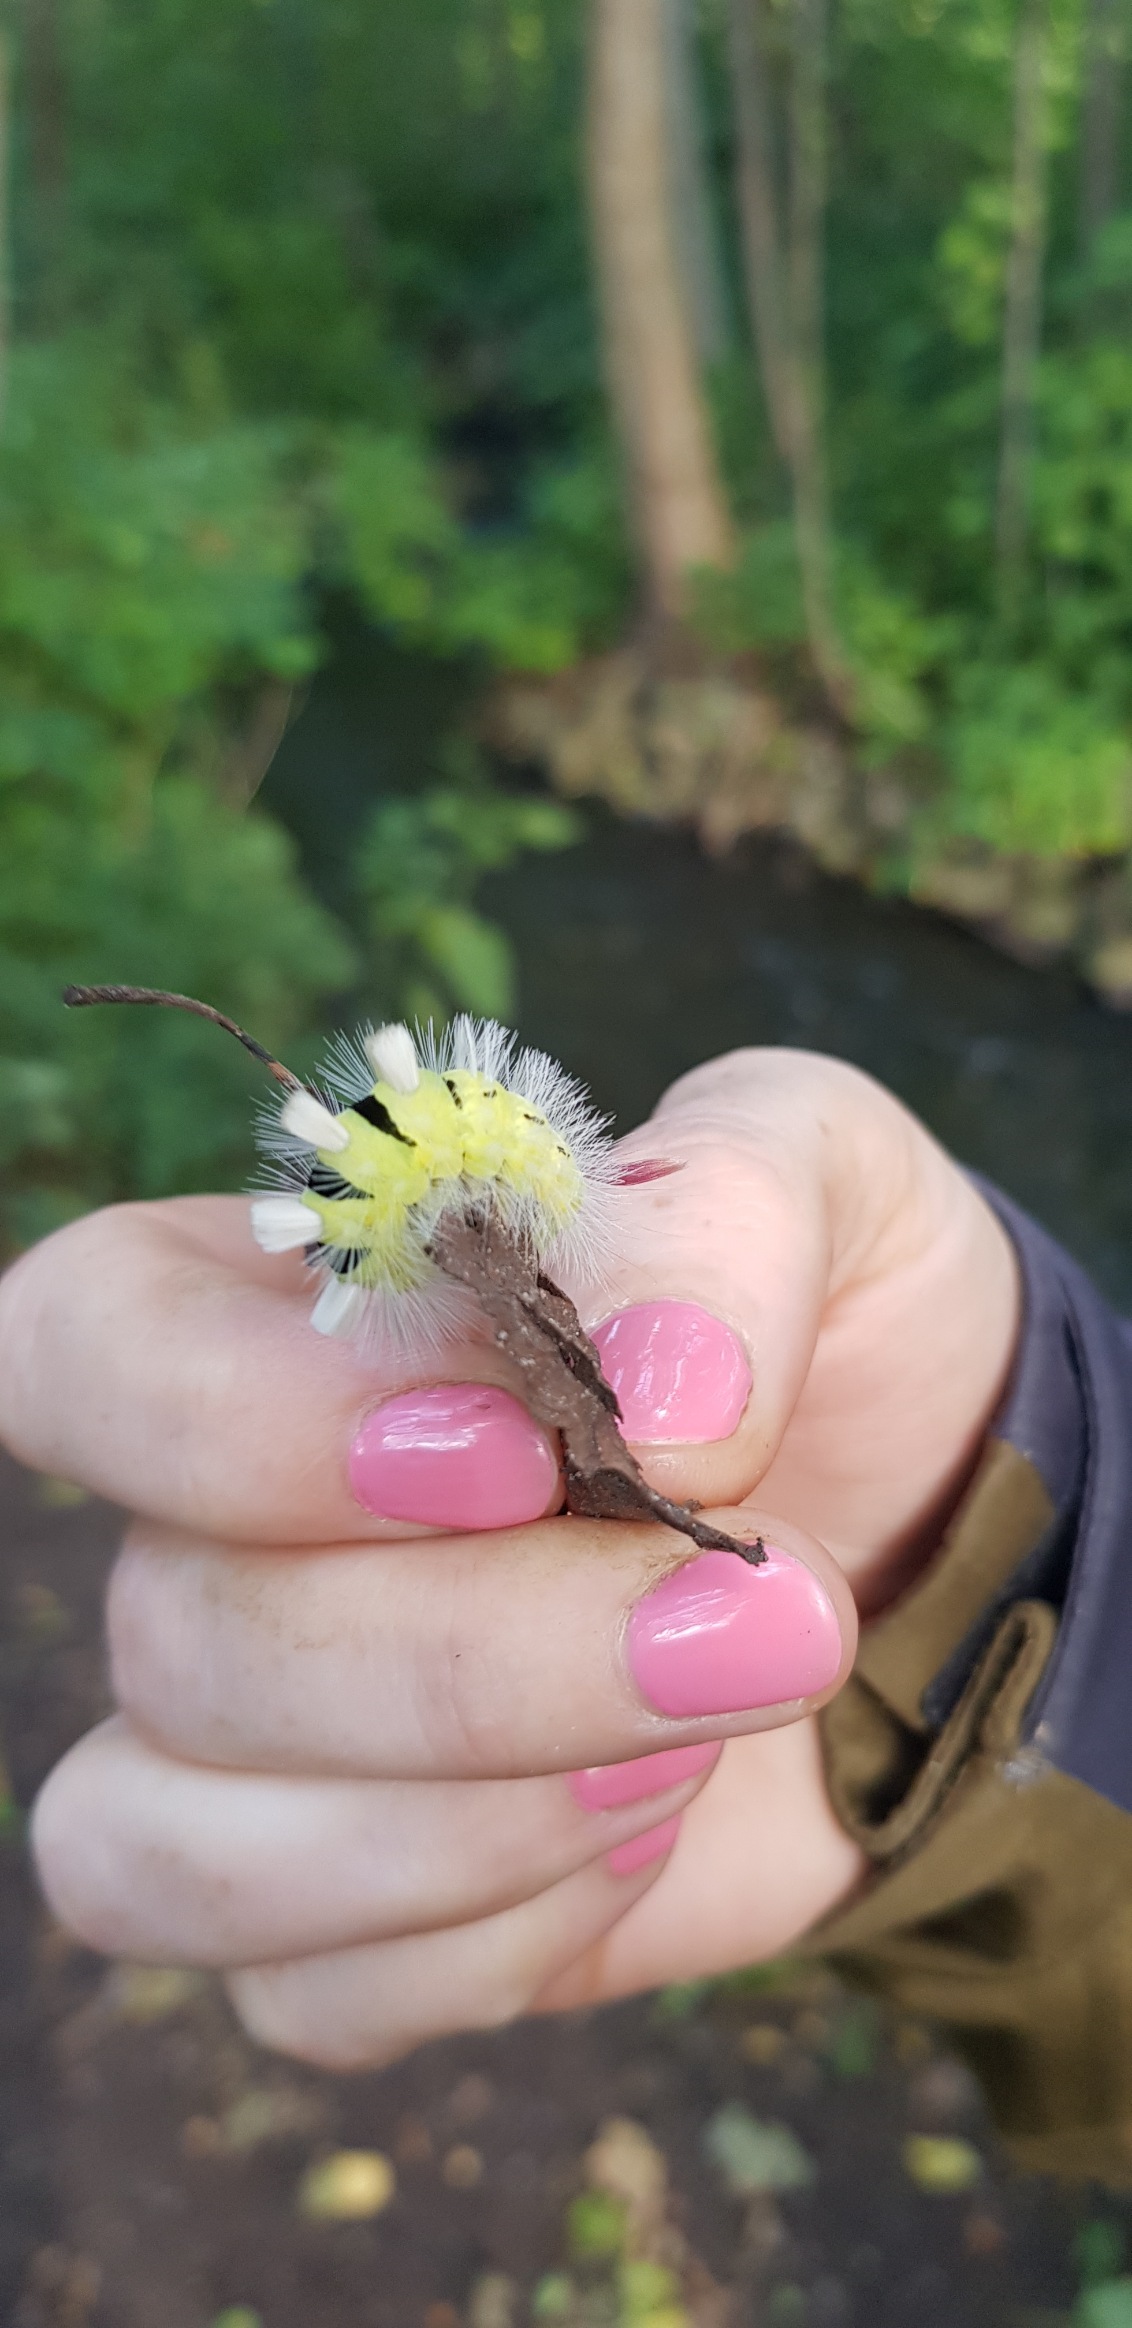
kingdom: Animalia
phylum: Arthropoda
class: Insecta
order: Lepidoptera
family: Erebidae
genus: Calliteara
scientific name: Calliteara pudibunda
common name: Bøgenonne
